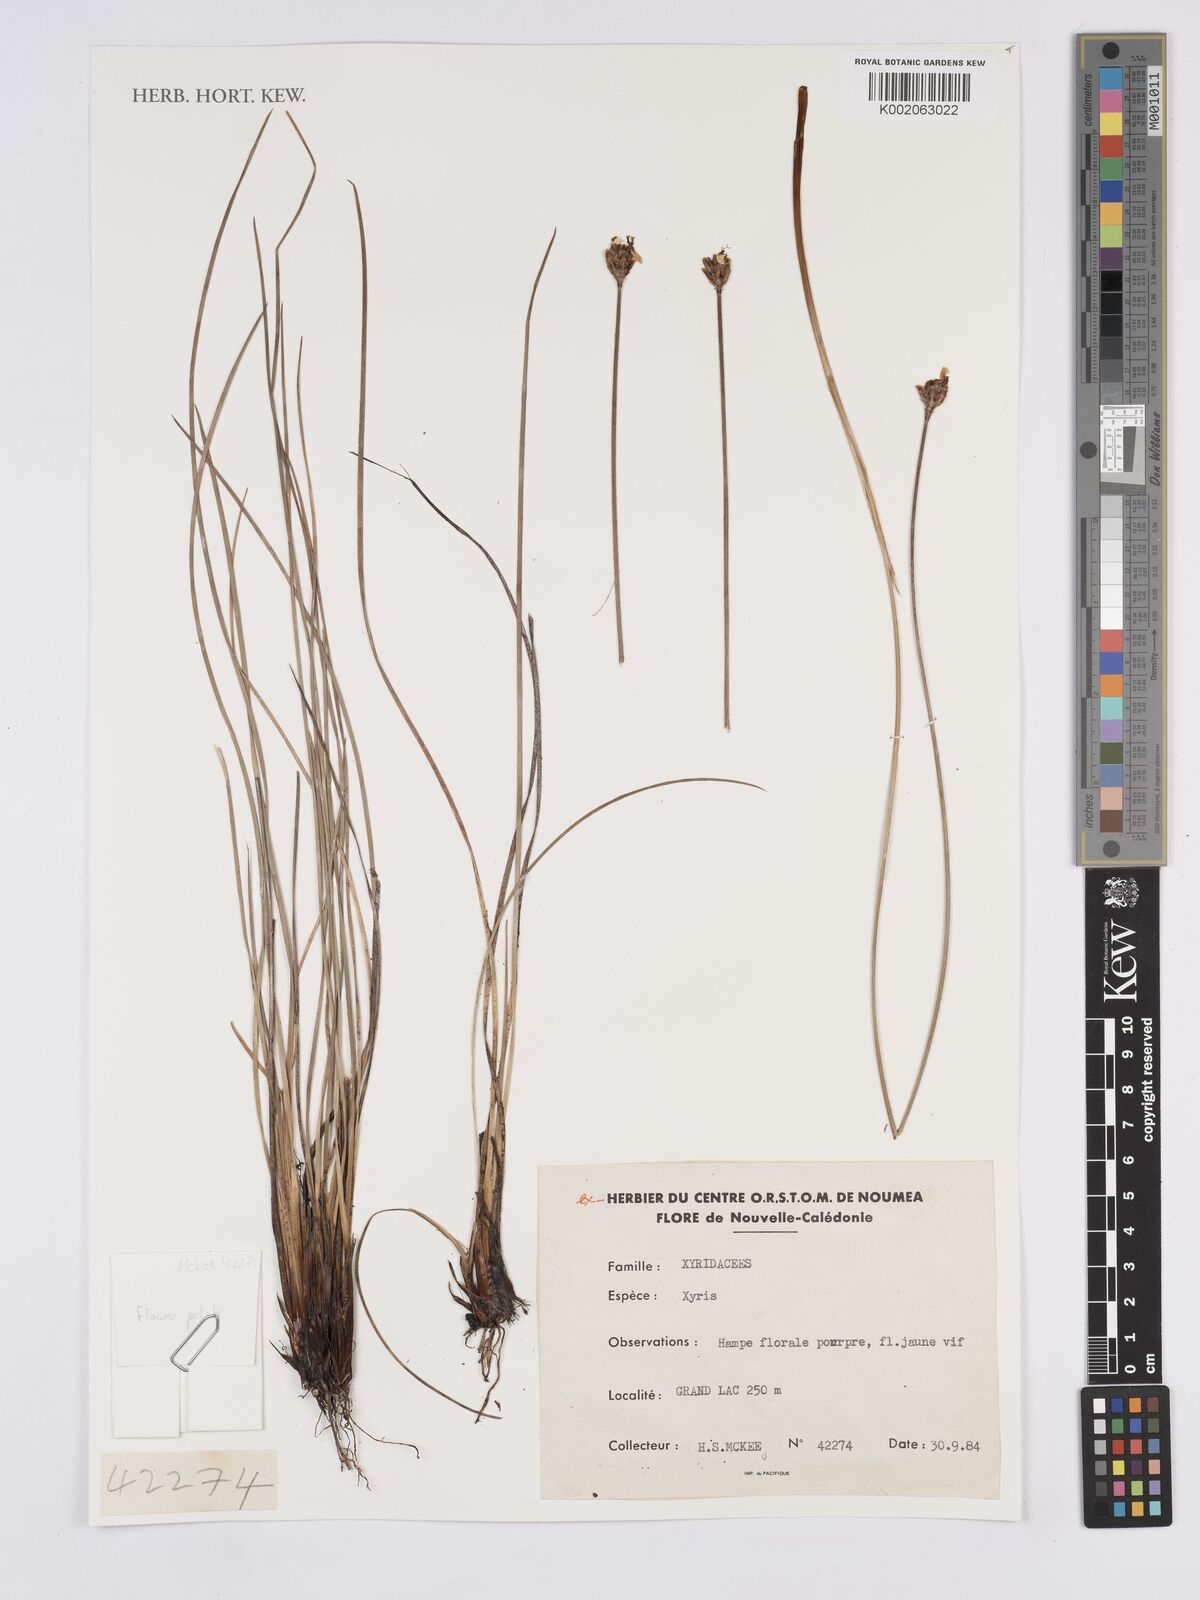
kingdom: Plantae
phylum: Tracheophyta
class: Liliopsida
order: Poales
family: Xyridaceae
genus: Xyris
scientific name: Xyris
